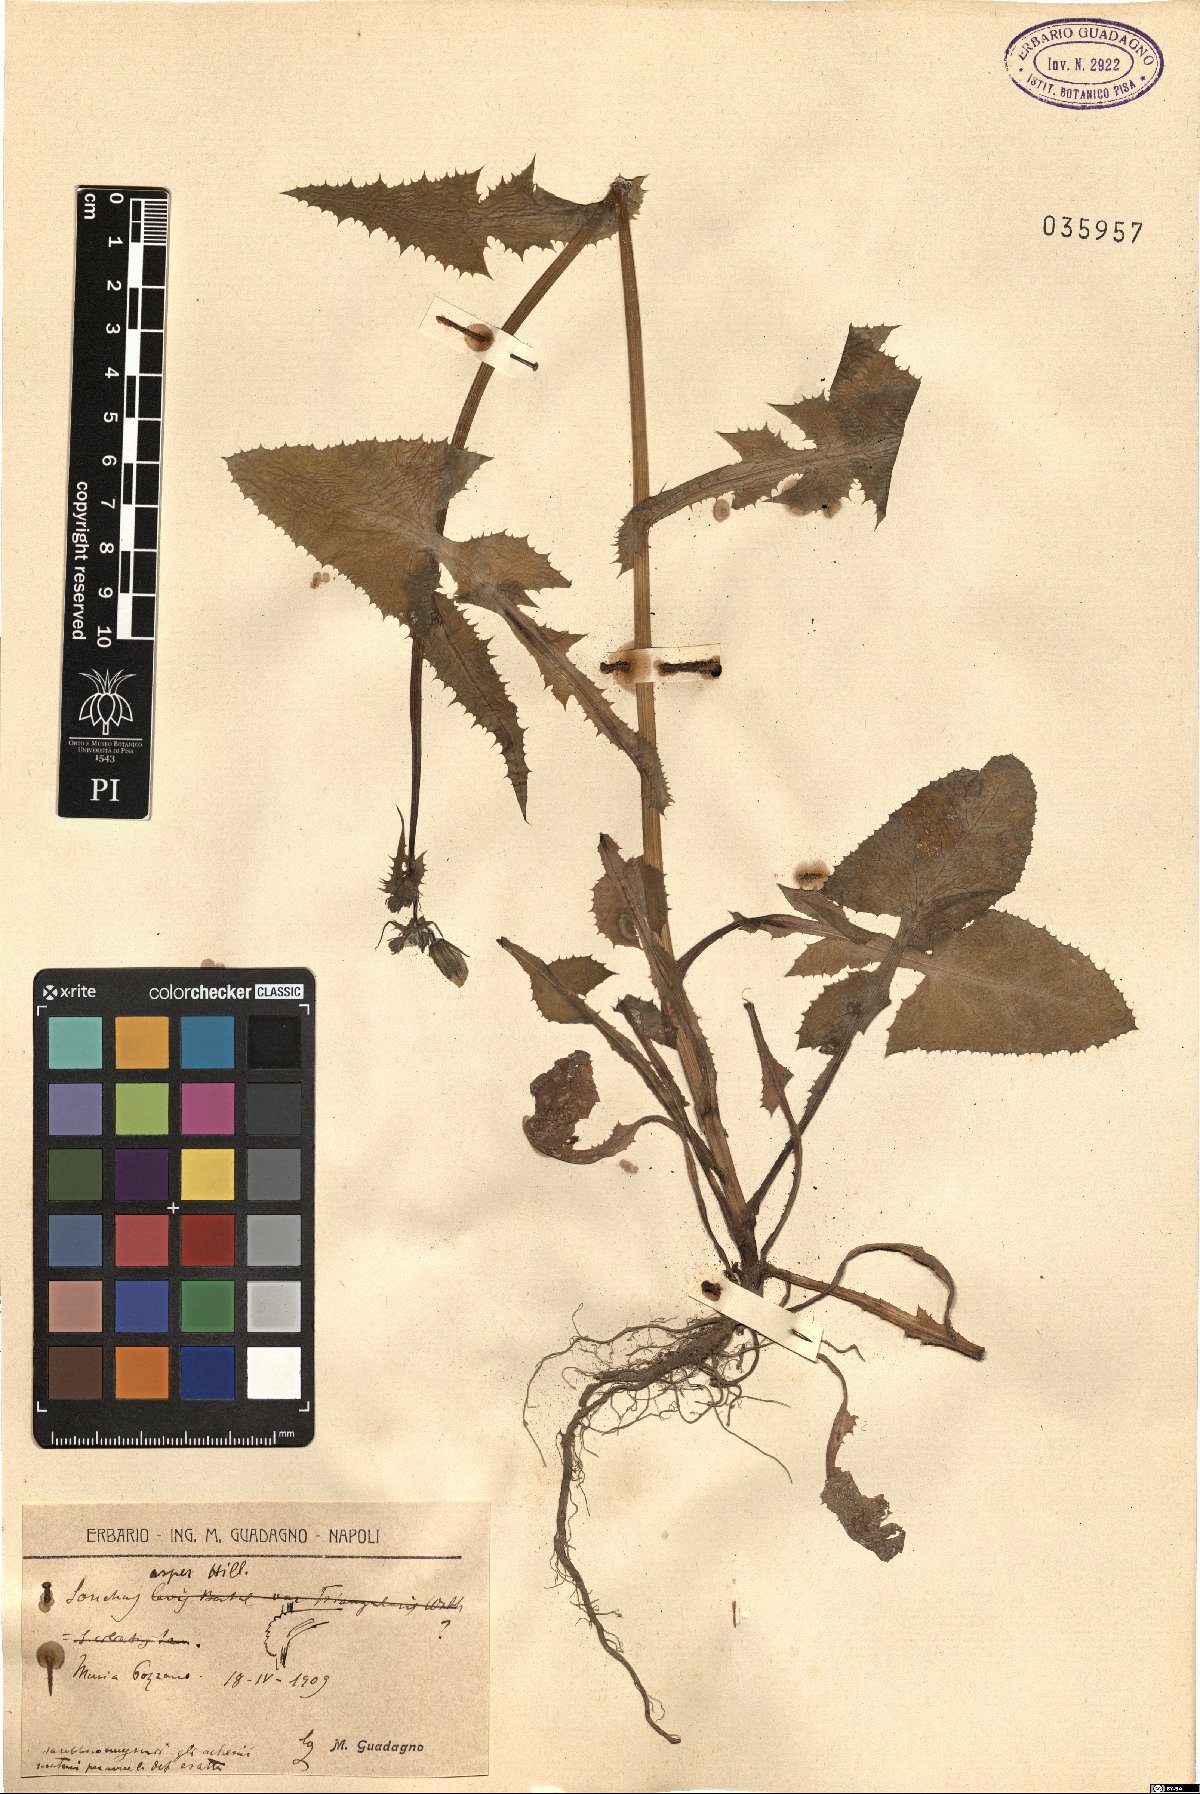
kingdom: Plantae
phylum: Tracheophyta
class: Magnoliopsida
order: Asterales
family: Asteraceae
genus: Sonchus
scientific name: Sonchus asper
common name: Prickly sow-thistle
